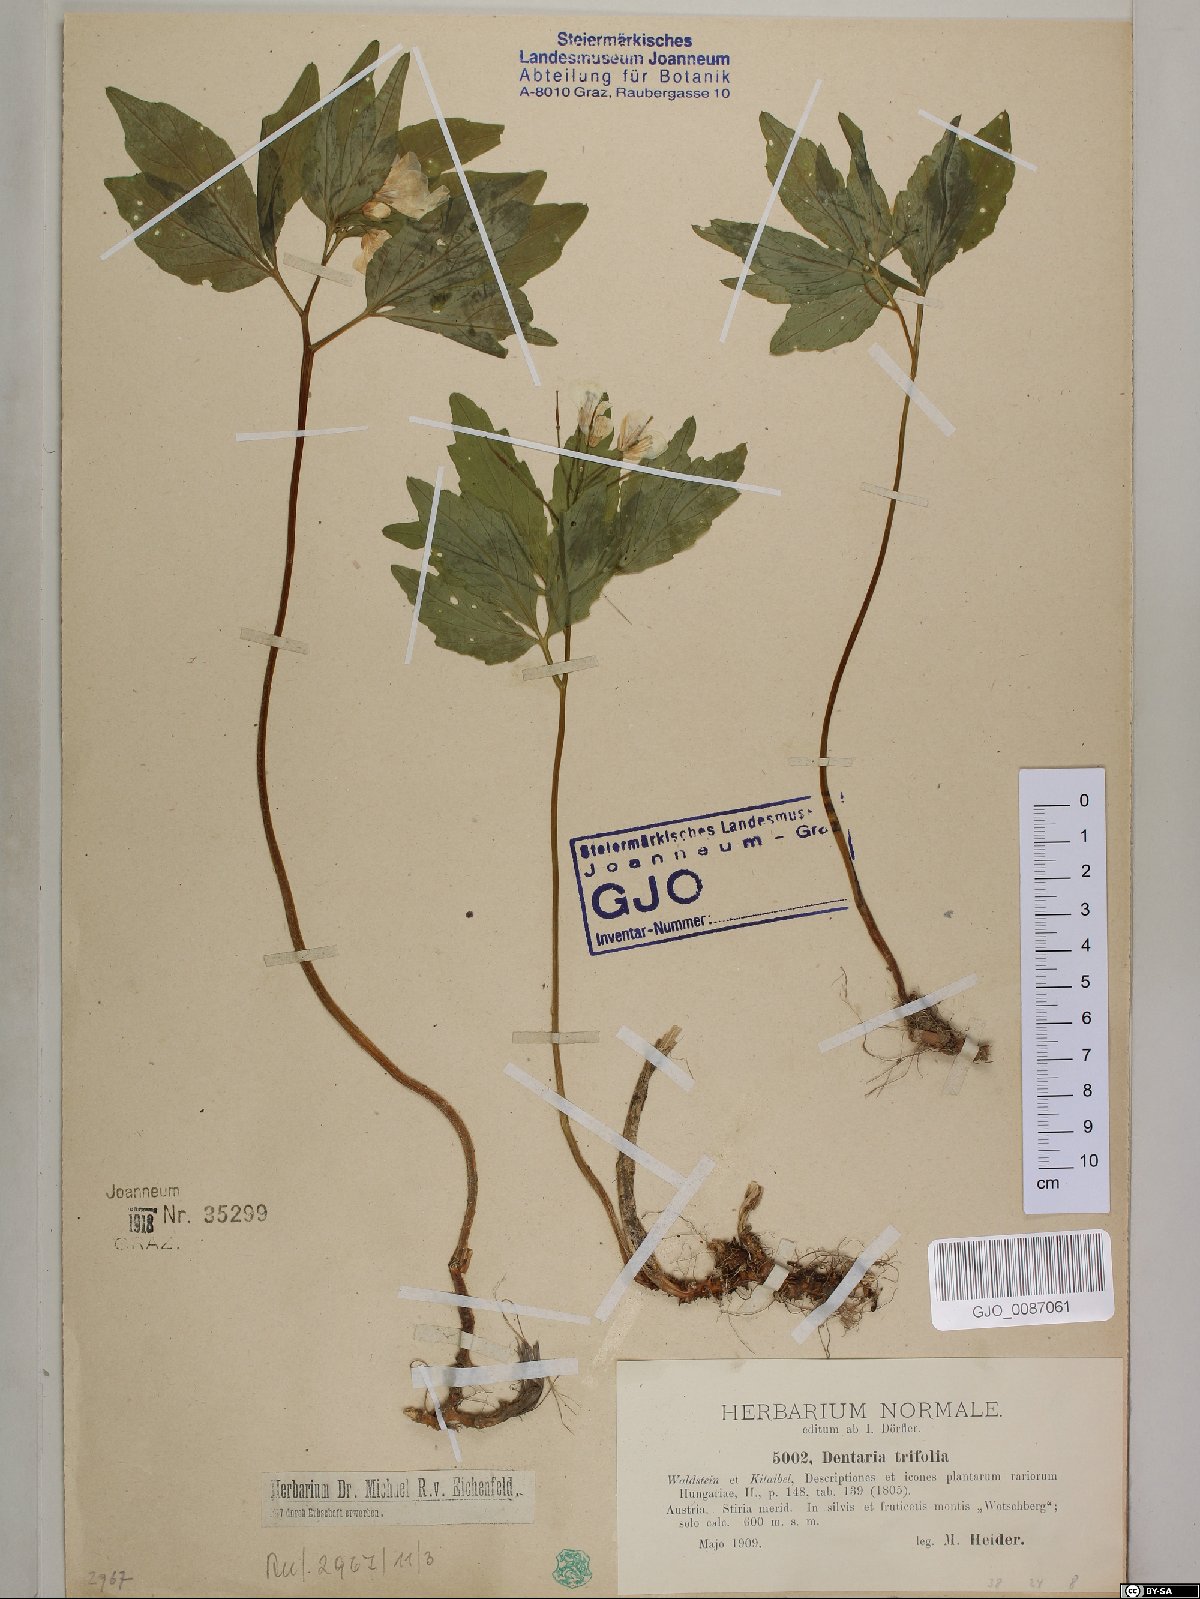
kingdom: Plantae
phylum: Tracheophyta
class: Magnoliopsida
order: Brassicales
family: Brassicaceae
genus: Cardamine
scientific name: Cardamine waldsteinii
